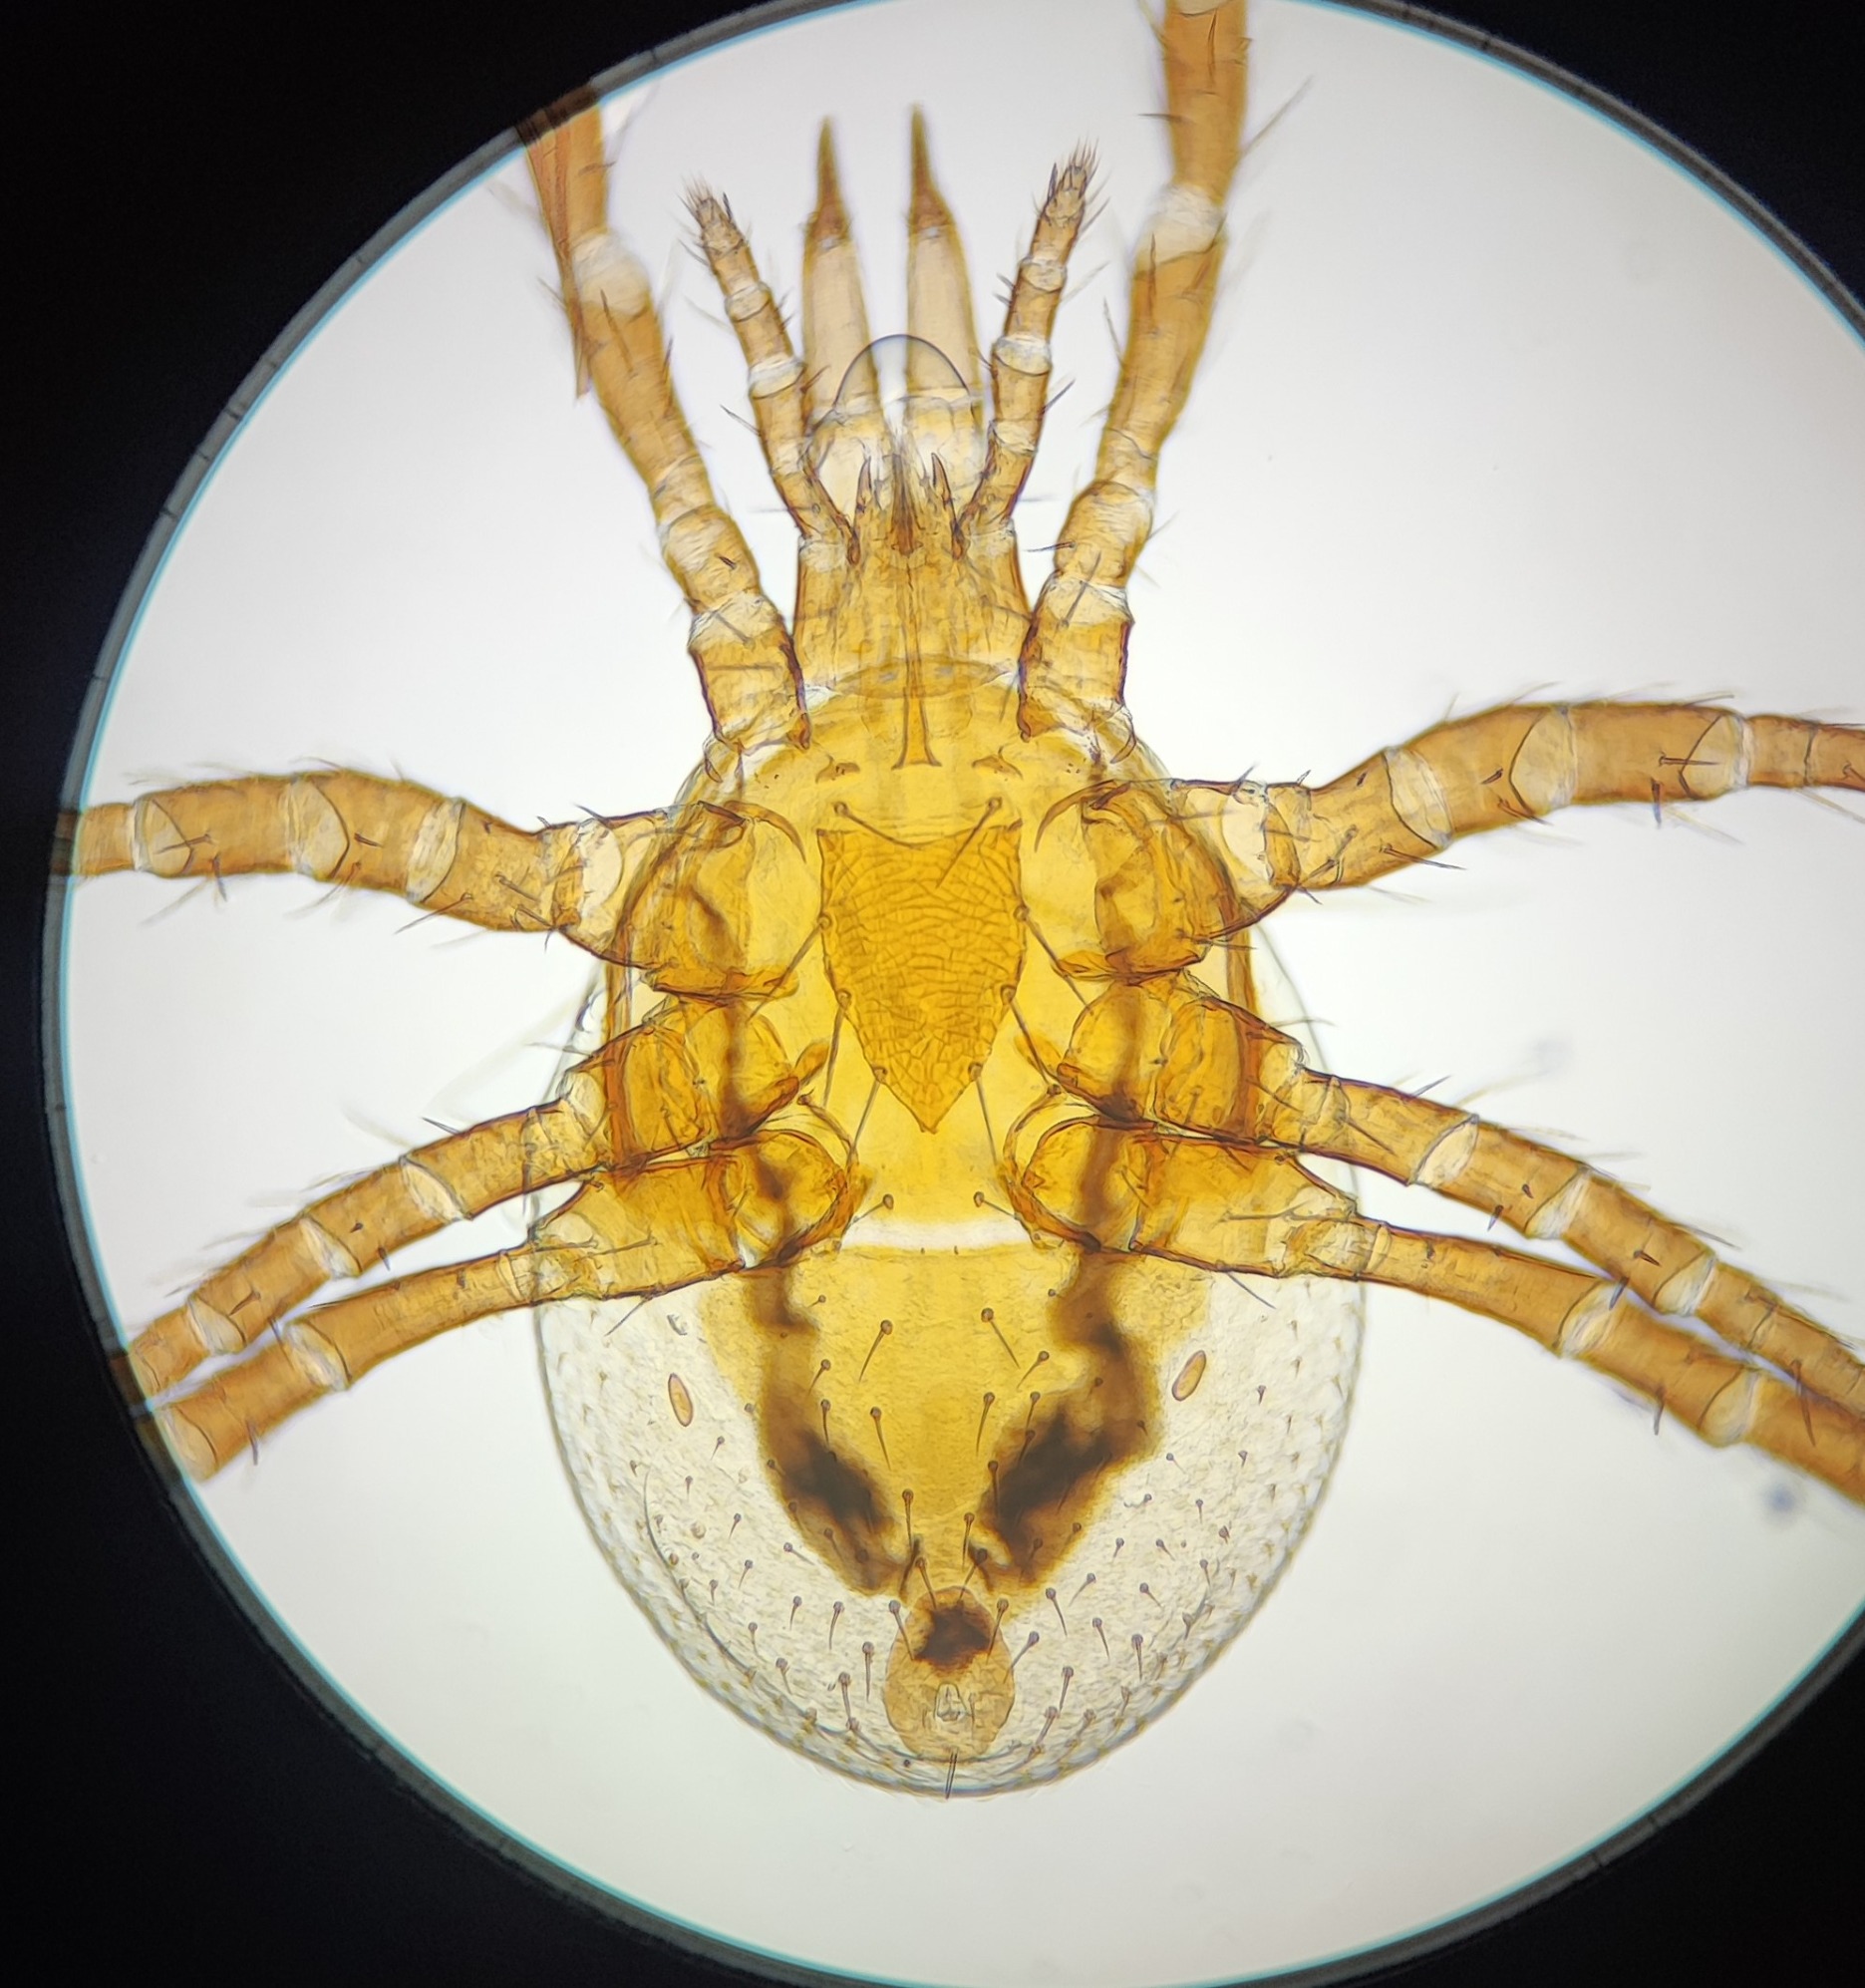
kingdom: Animalia
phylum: Arthropoda
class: Arachnida
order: Mesostigmata
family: Parasitidae
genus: Parasitellus
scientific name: Parasitellus fucorum
